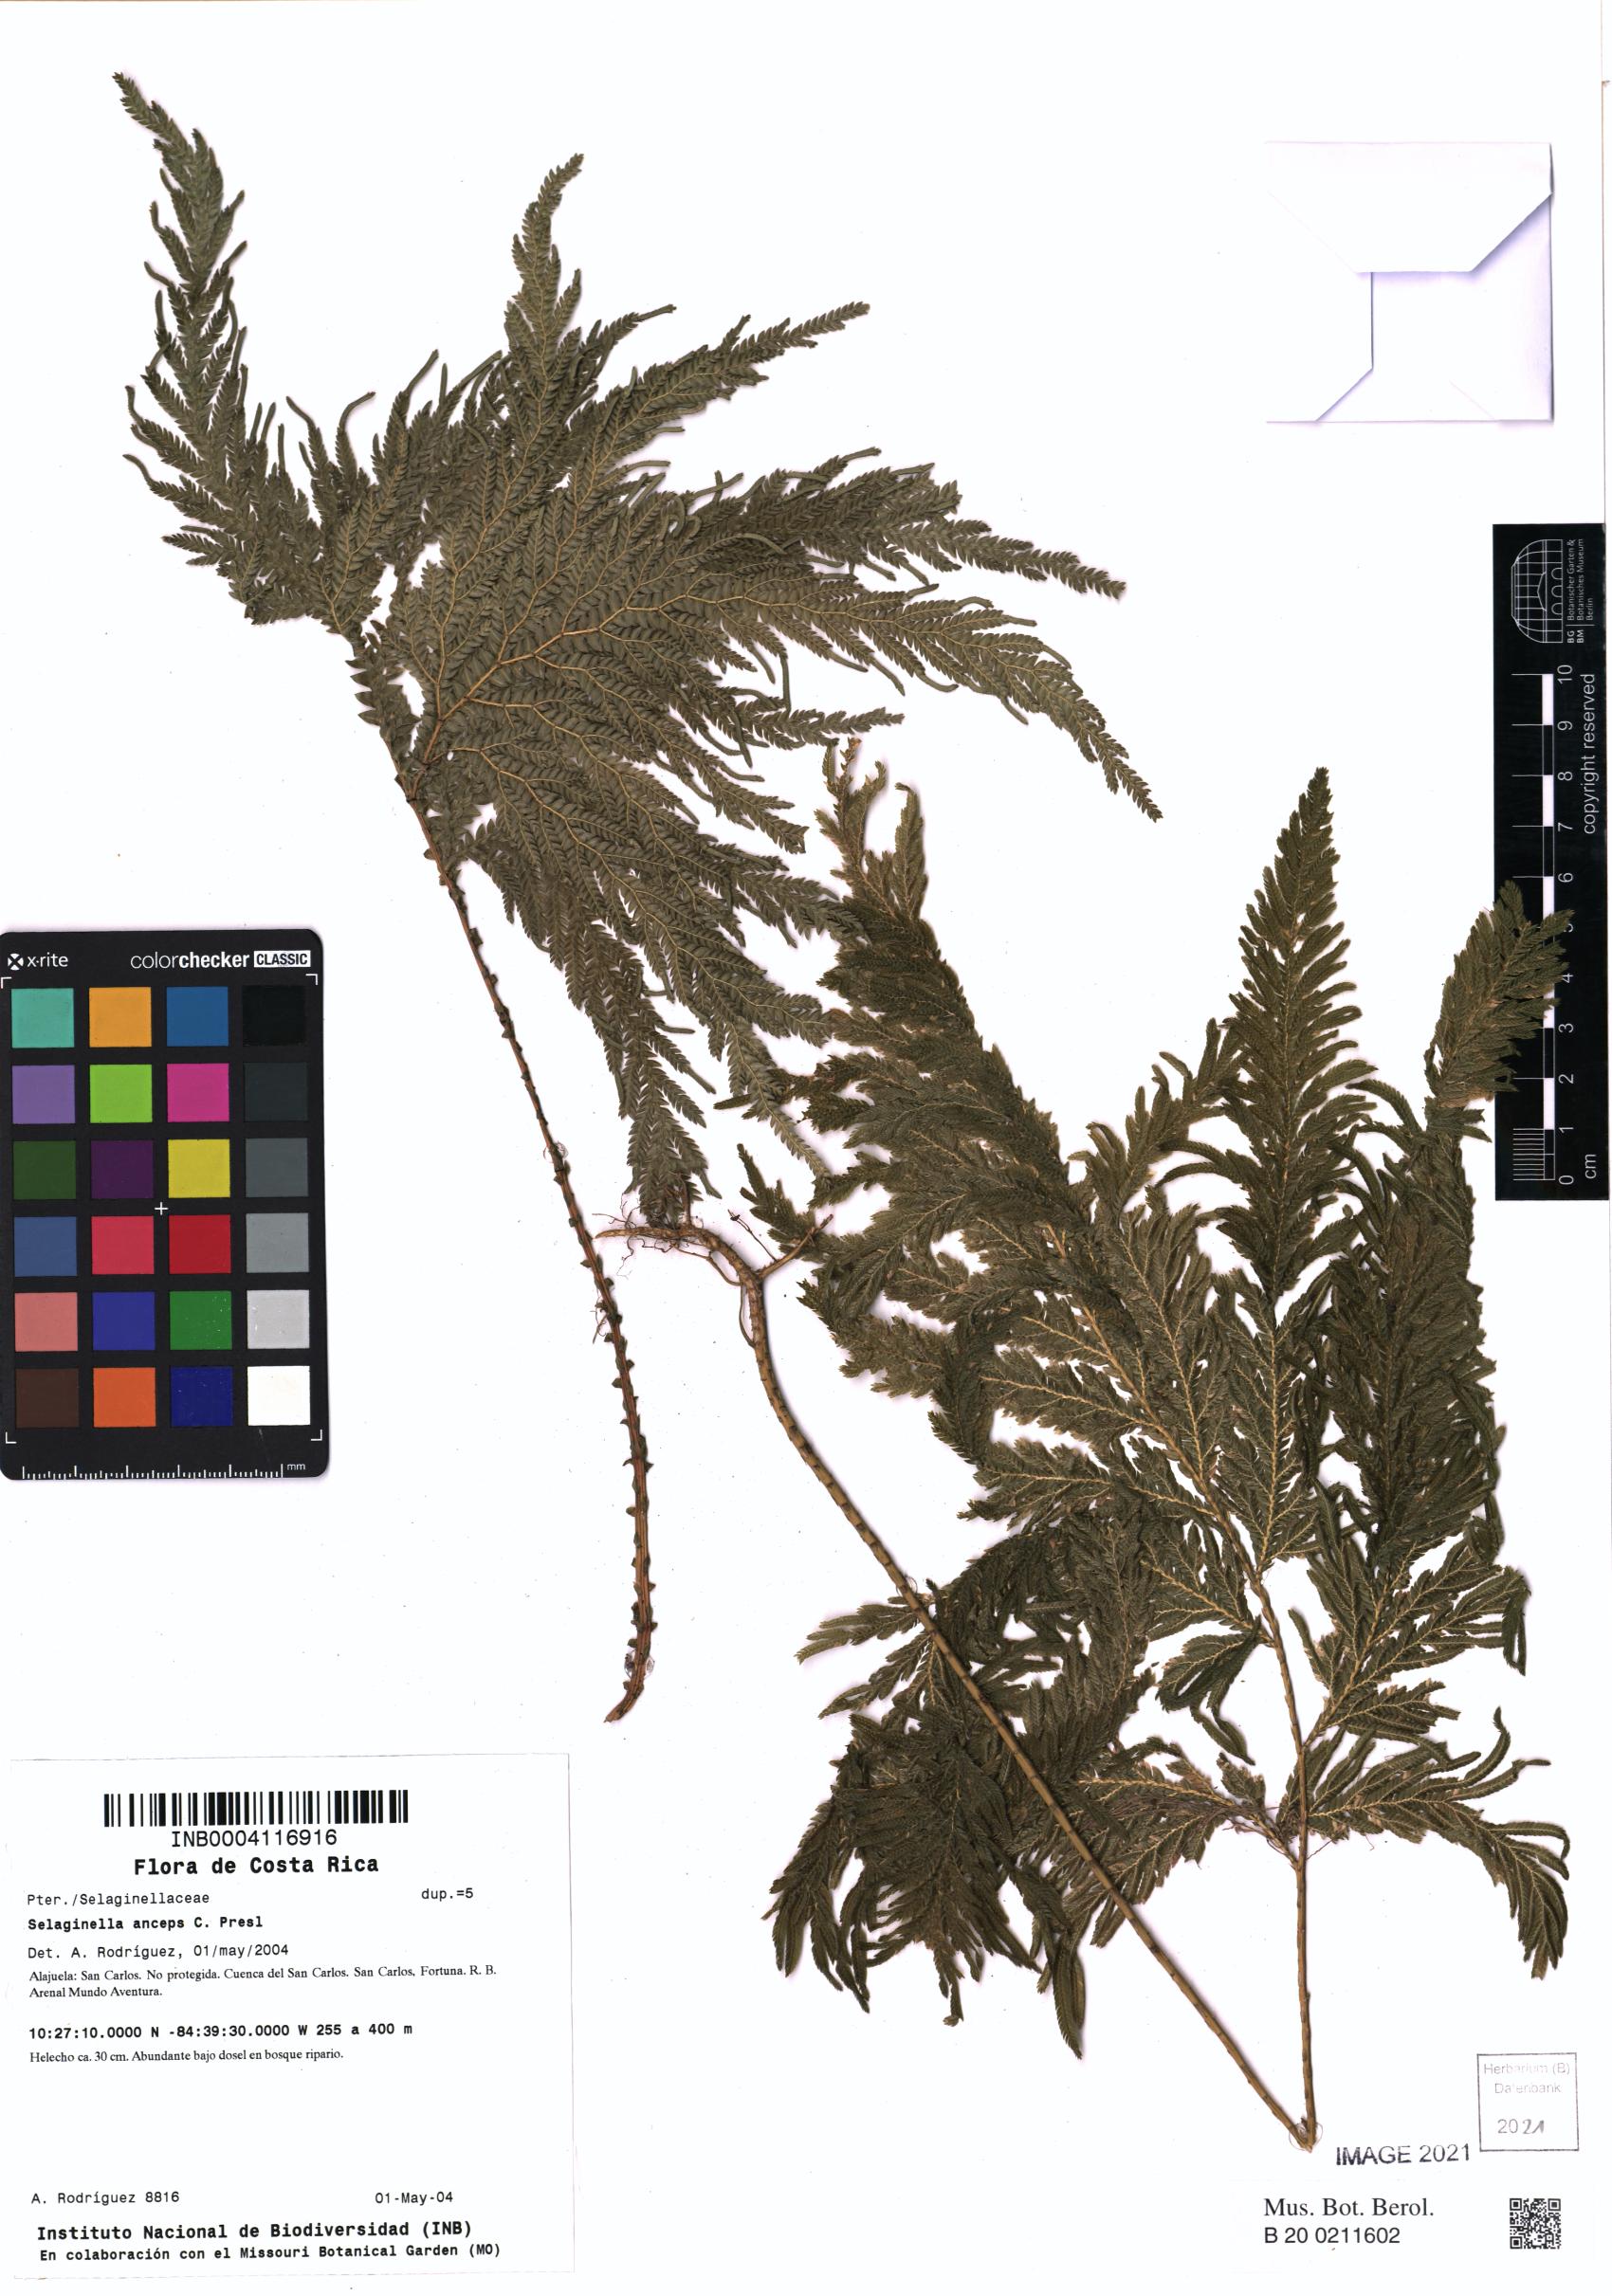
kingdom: Plantae
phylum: Tracheophyta
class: Lycopodiopsida
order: Selaginellales
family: Selaginellaceae
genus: Selaginella
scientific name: Selaginella anceps
